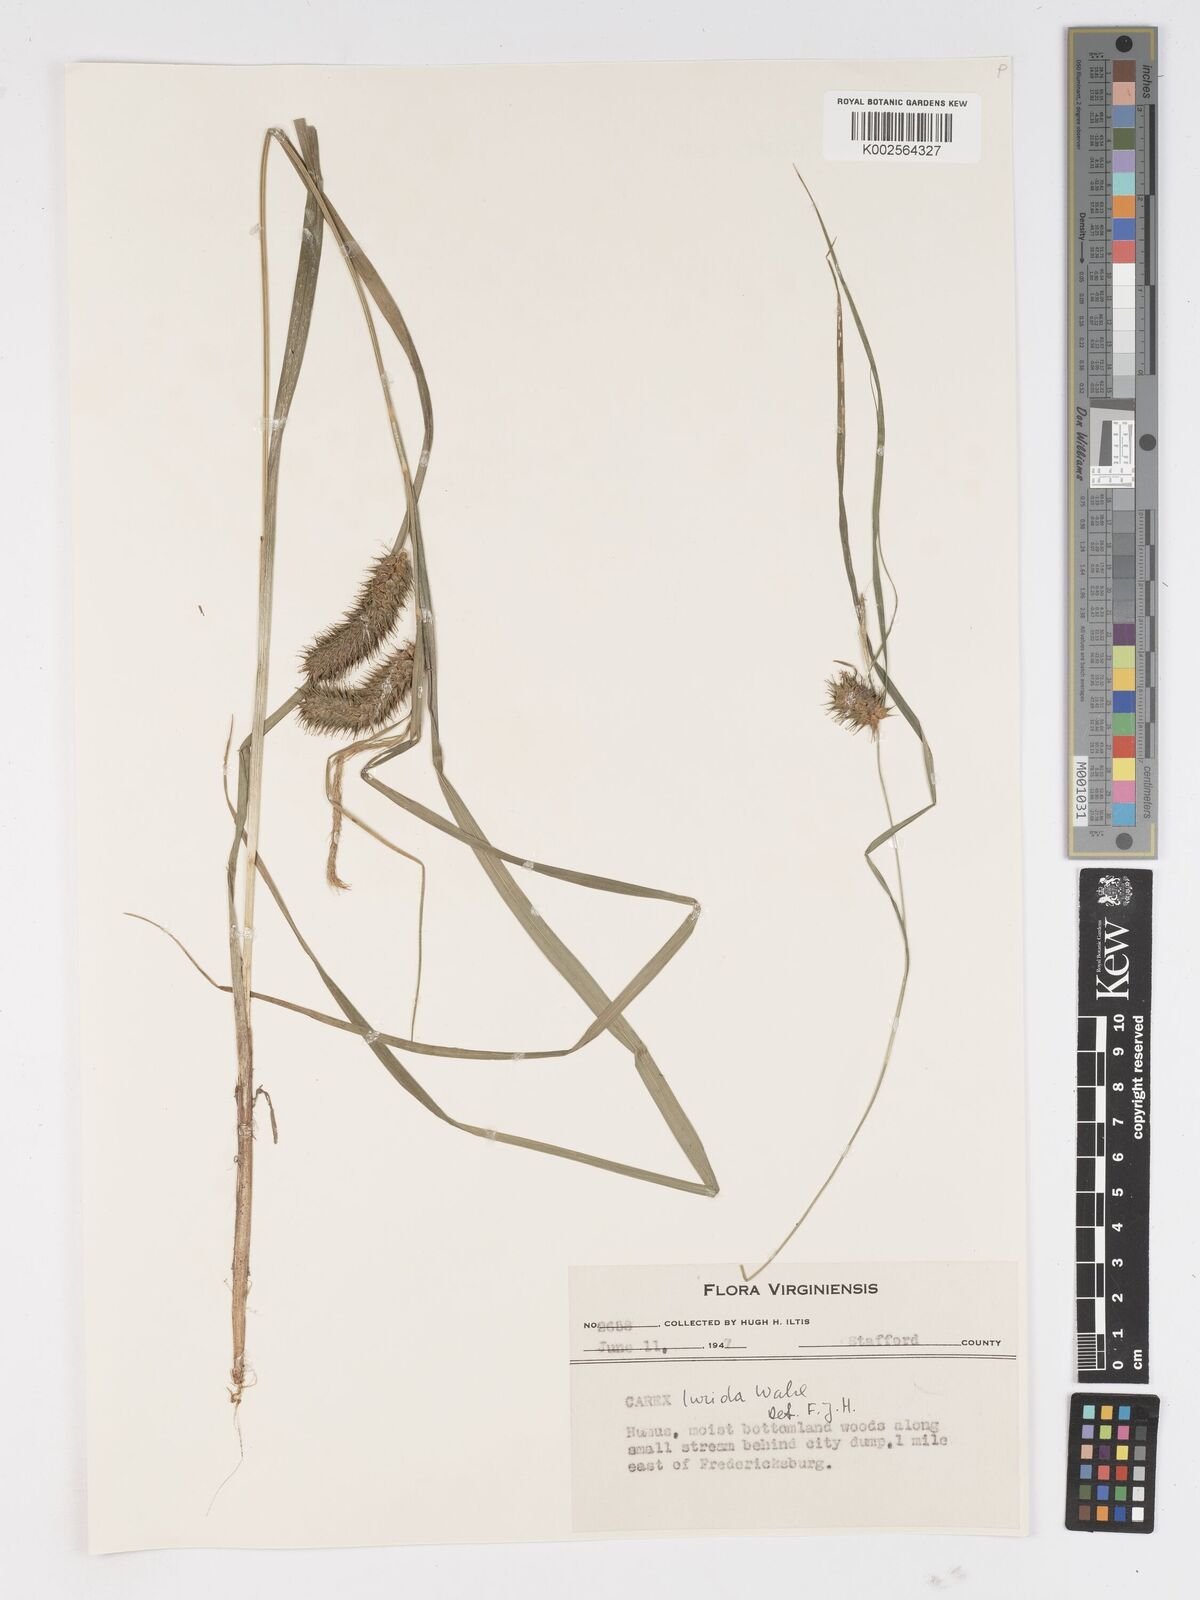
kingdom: Plantae
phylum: Tracheophyta
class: Liliopsida
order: Poales
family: Cyperaceae
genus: Carex
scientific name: Carex lurida
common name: Sallow sedge
